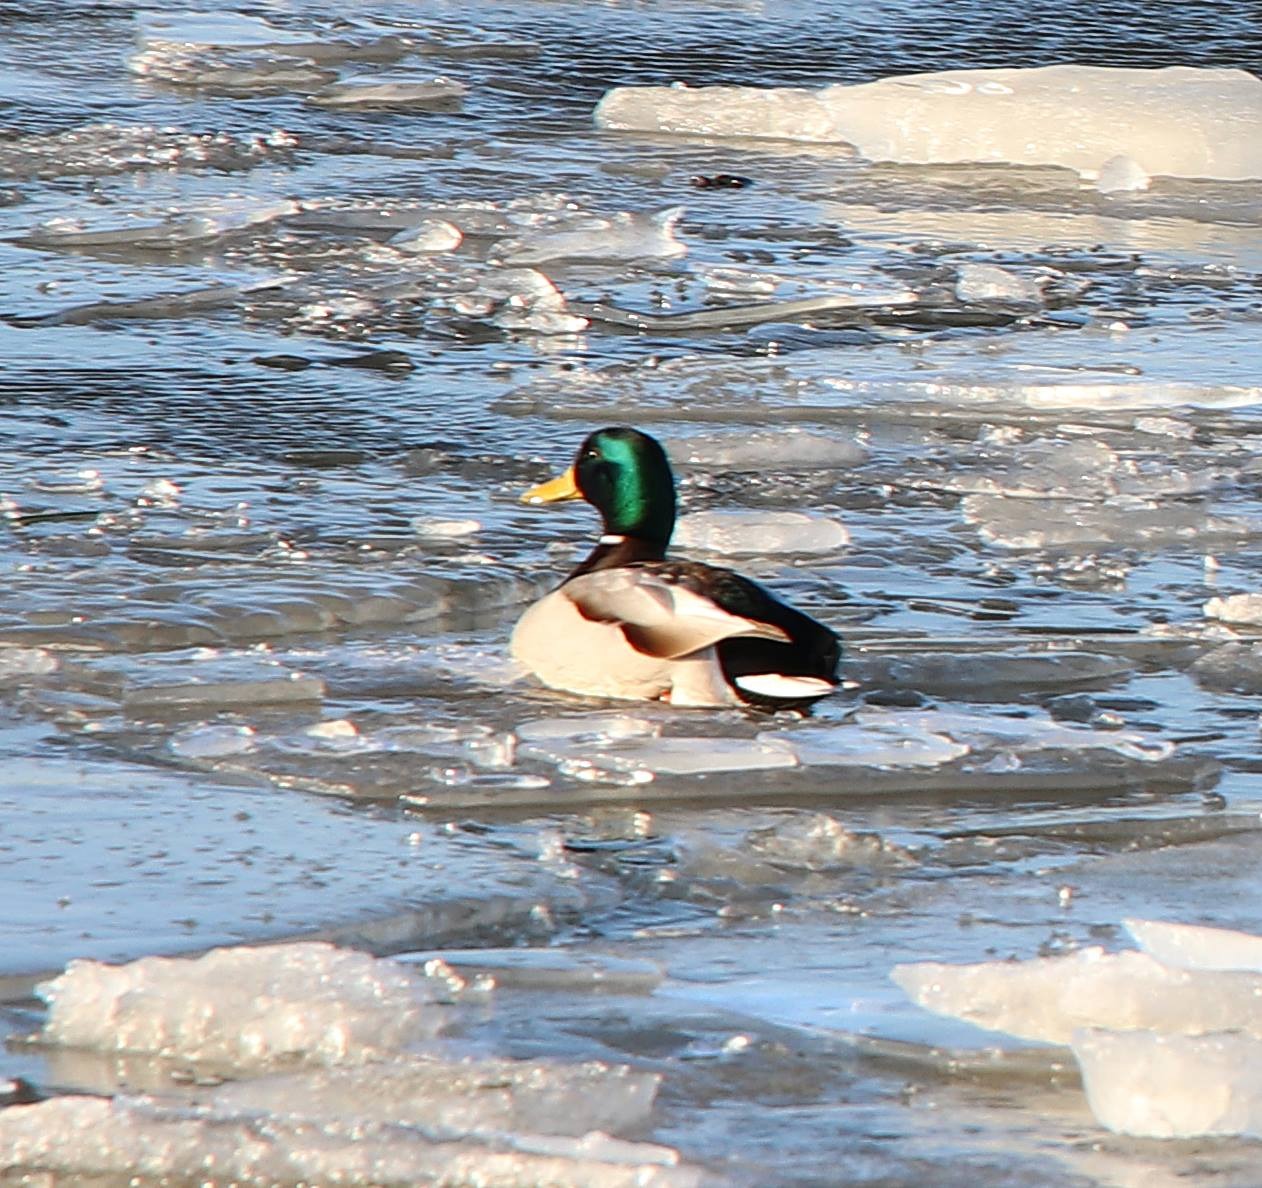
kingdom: Animalia
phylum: Chordata
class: Aves
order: Anseriformes
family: Anatidae
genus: Anas
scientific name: Anas platyrhynchos
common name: Gråand
